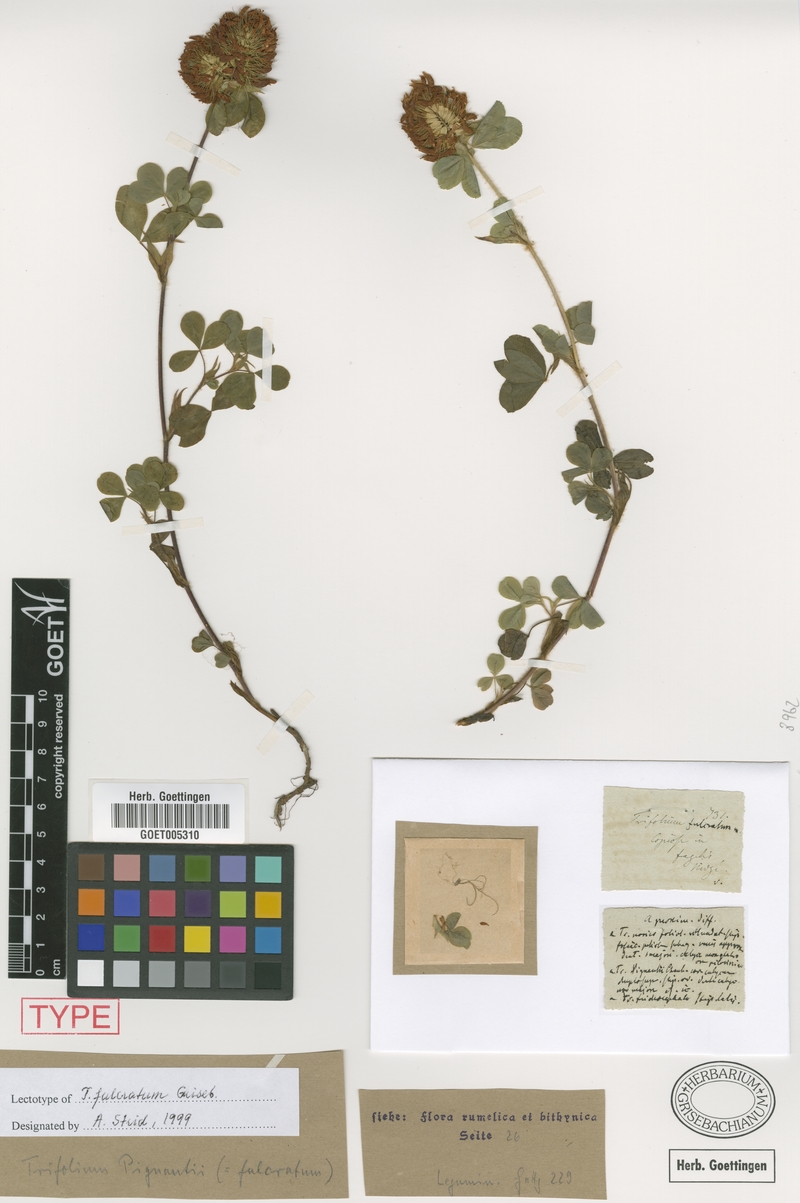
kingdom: Plantae
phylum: Tracheophyta
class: Magnoliopsida
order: Fabales
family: Fabaceae
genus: Trifolium
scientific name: Trifolium pignantii
